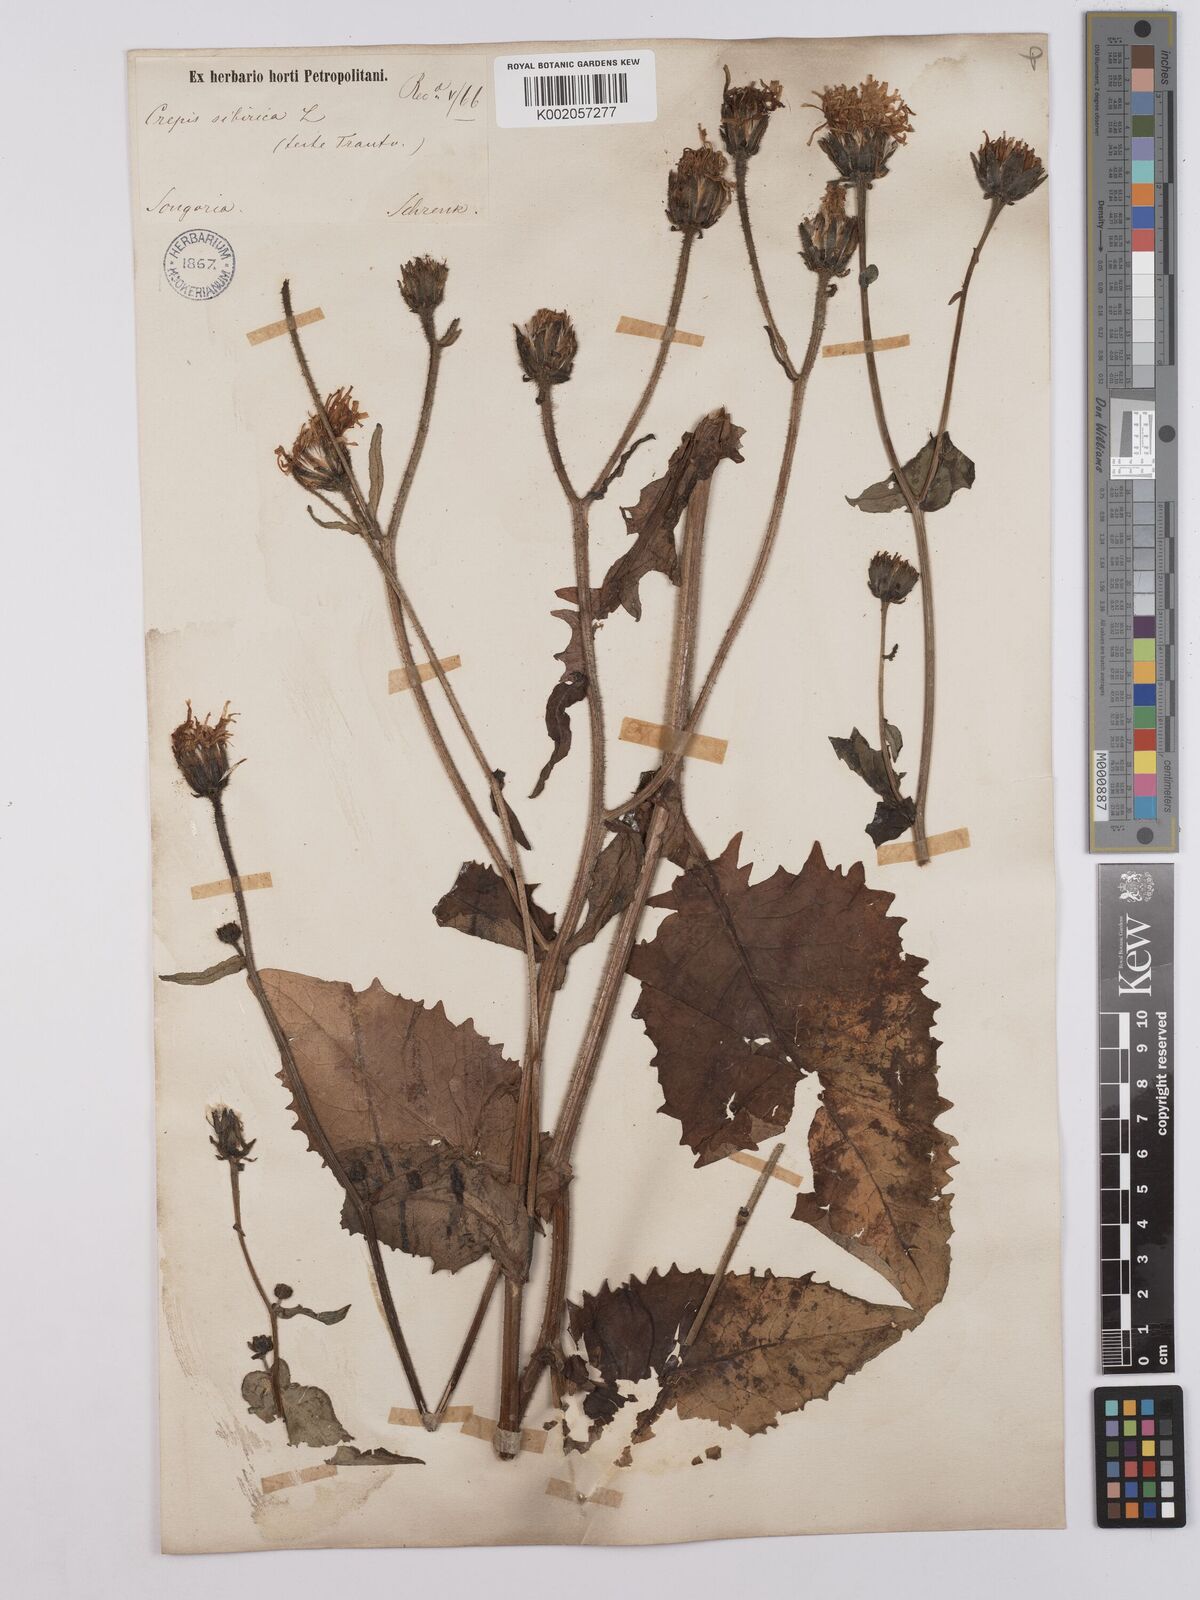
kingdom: Plantae
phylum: Tracheophyta
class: Magnoliopsida
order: Asterales
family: Asteraceae
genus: Crepis
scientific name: Crepis sibirica
